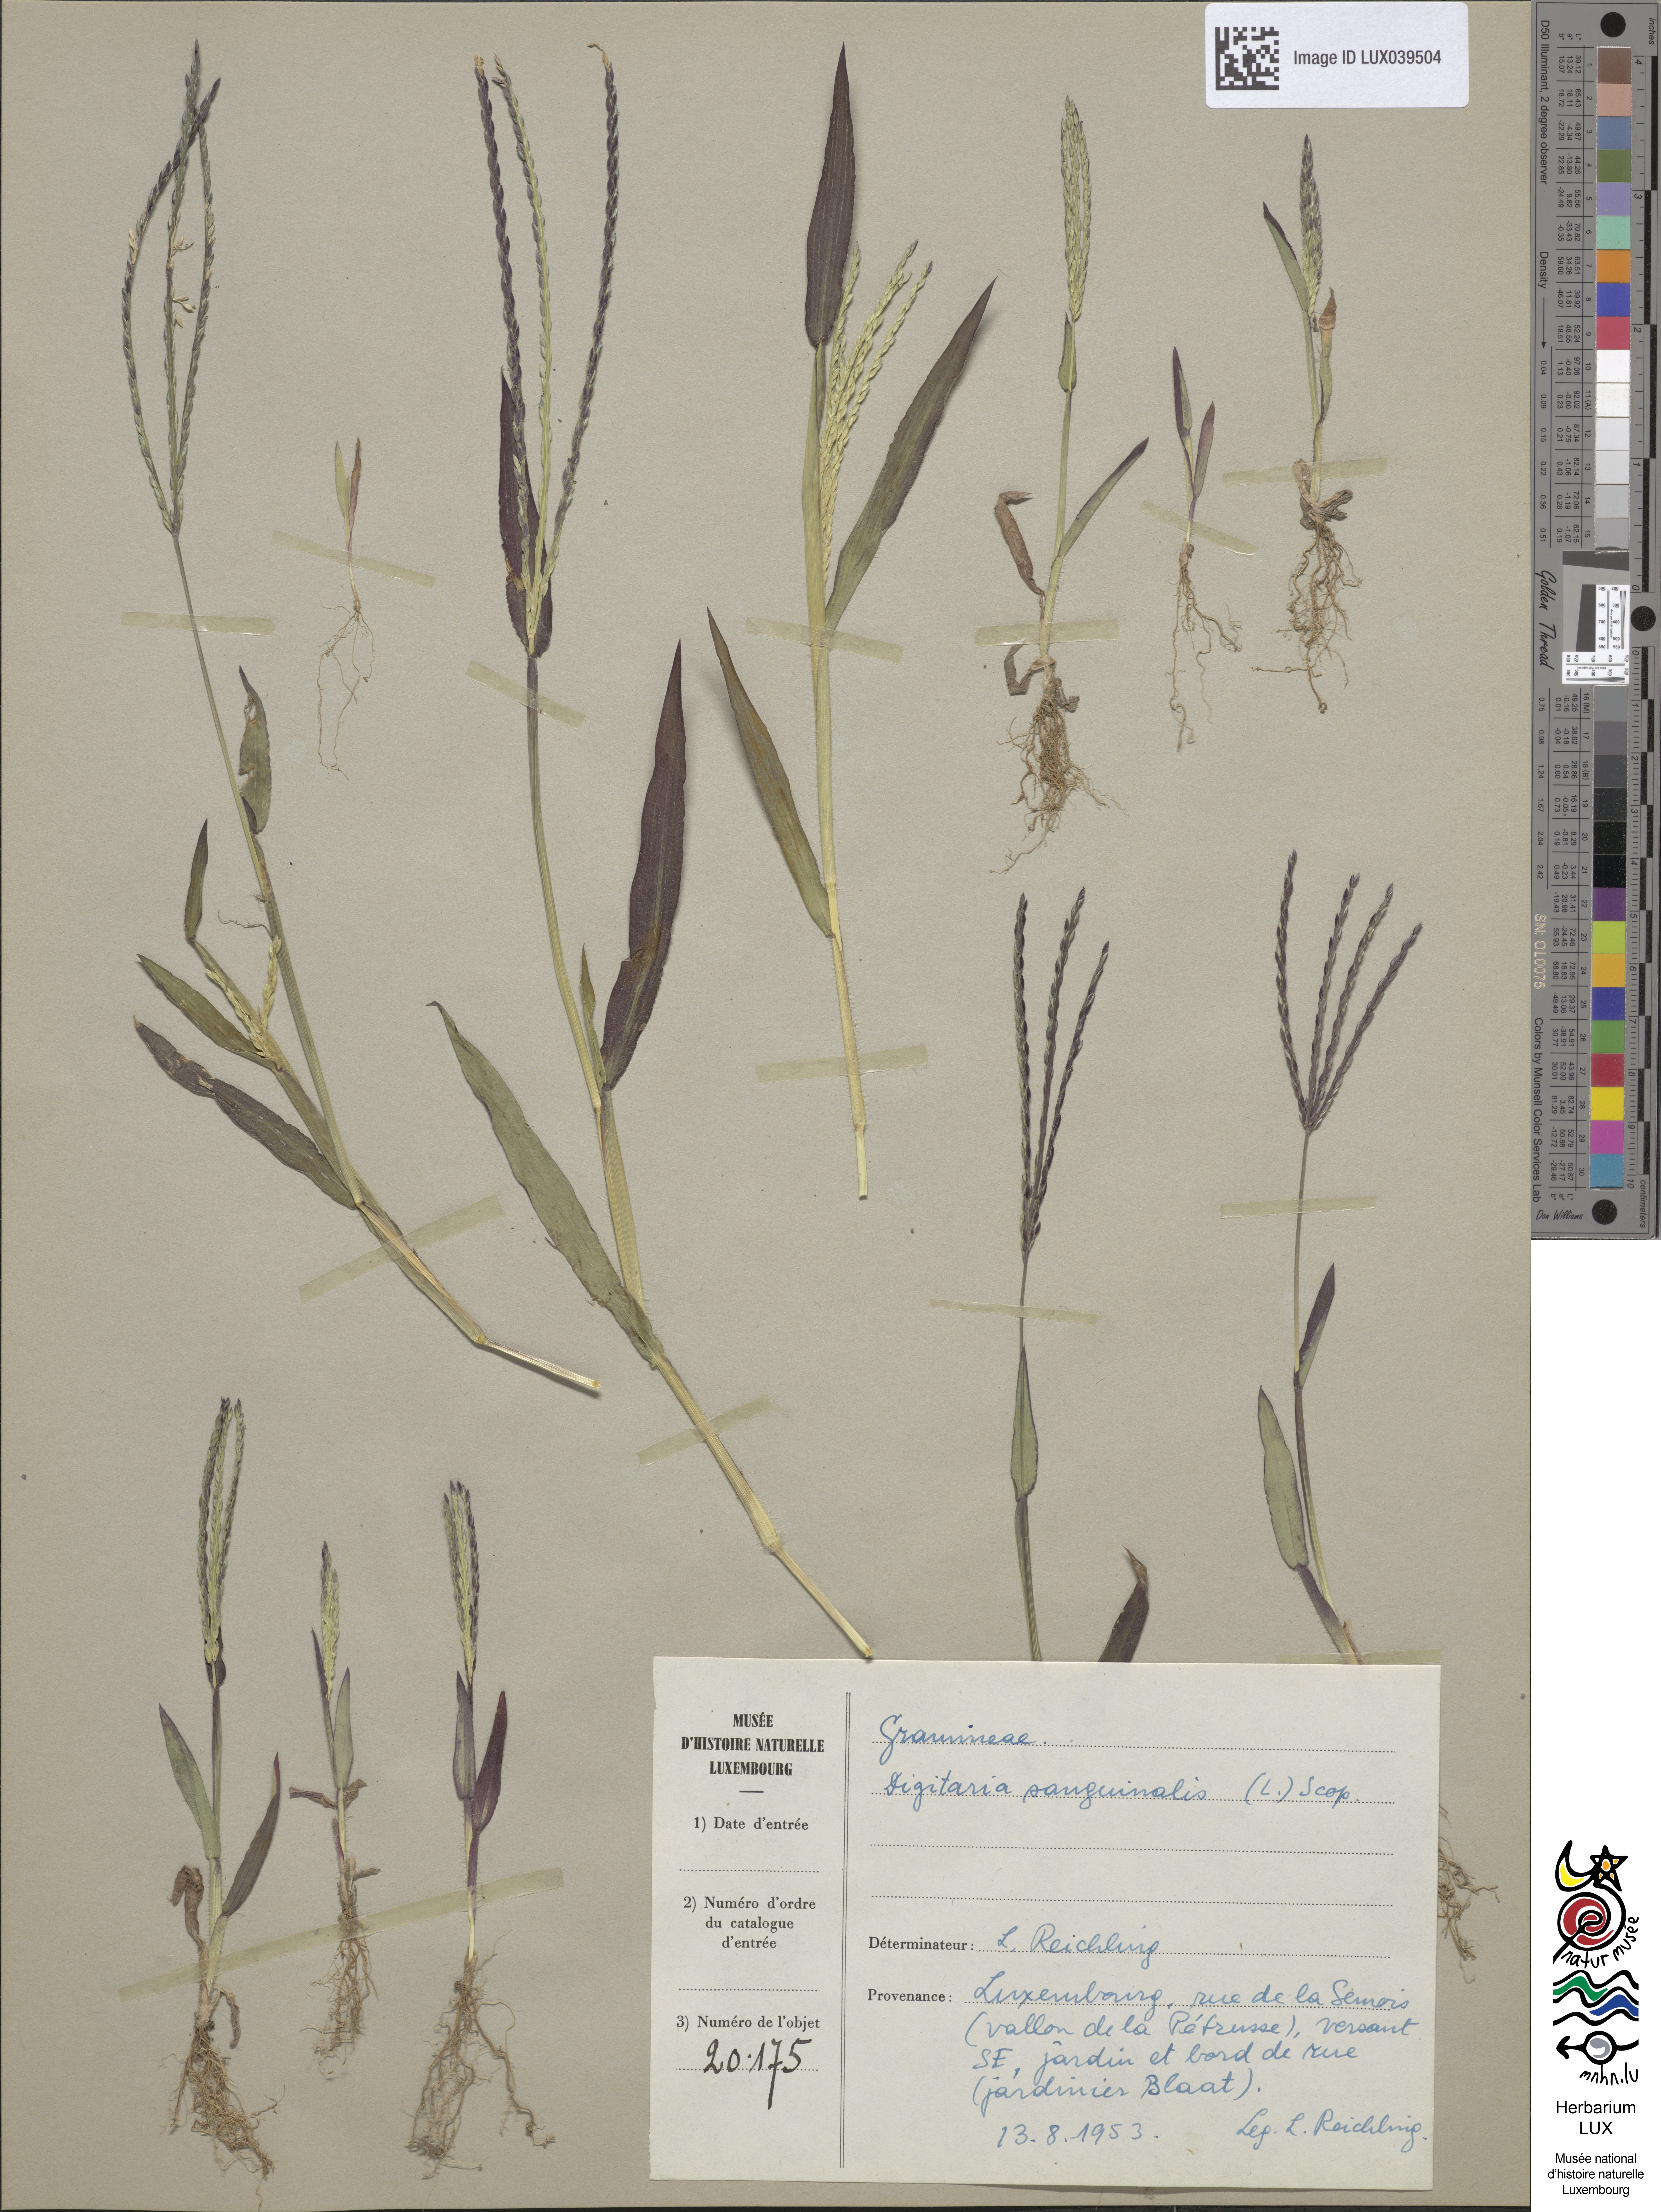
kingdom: Plantae
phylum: Tracheophyta
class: Liliopsida
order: Poales
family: Poaceae
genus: Digitaria
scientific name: Digitaria sanguinalis
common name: Hairy crabgrass
